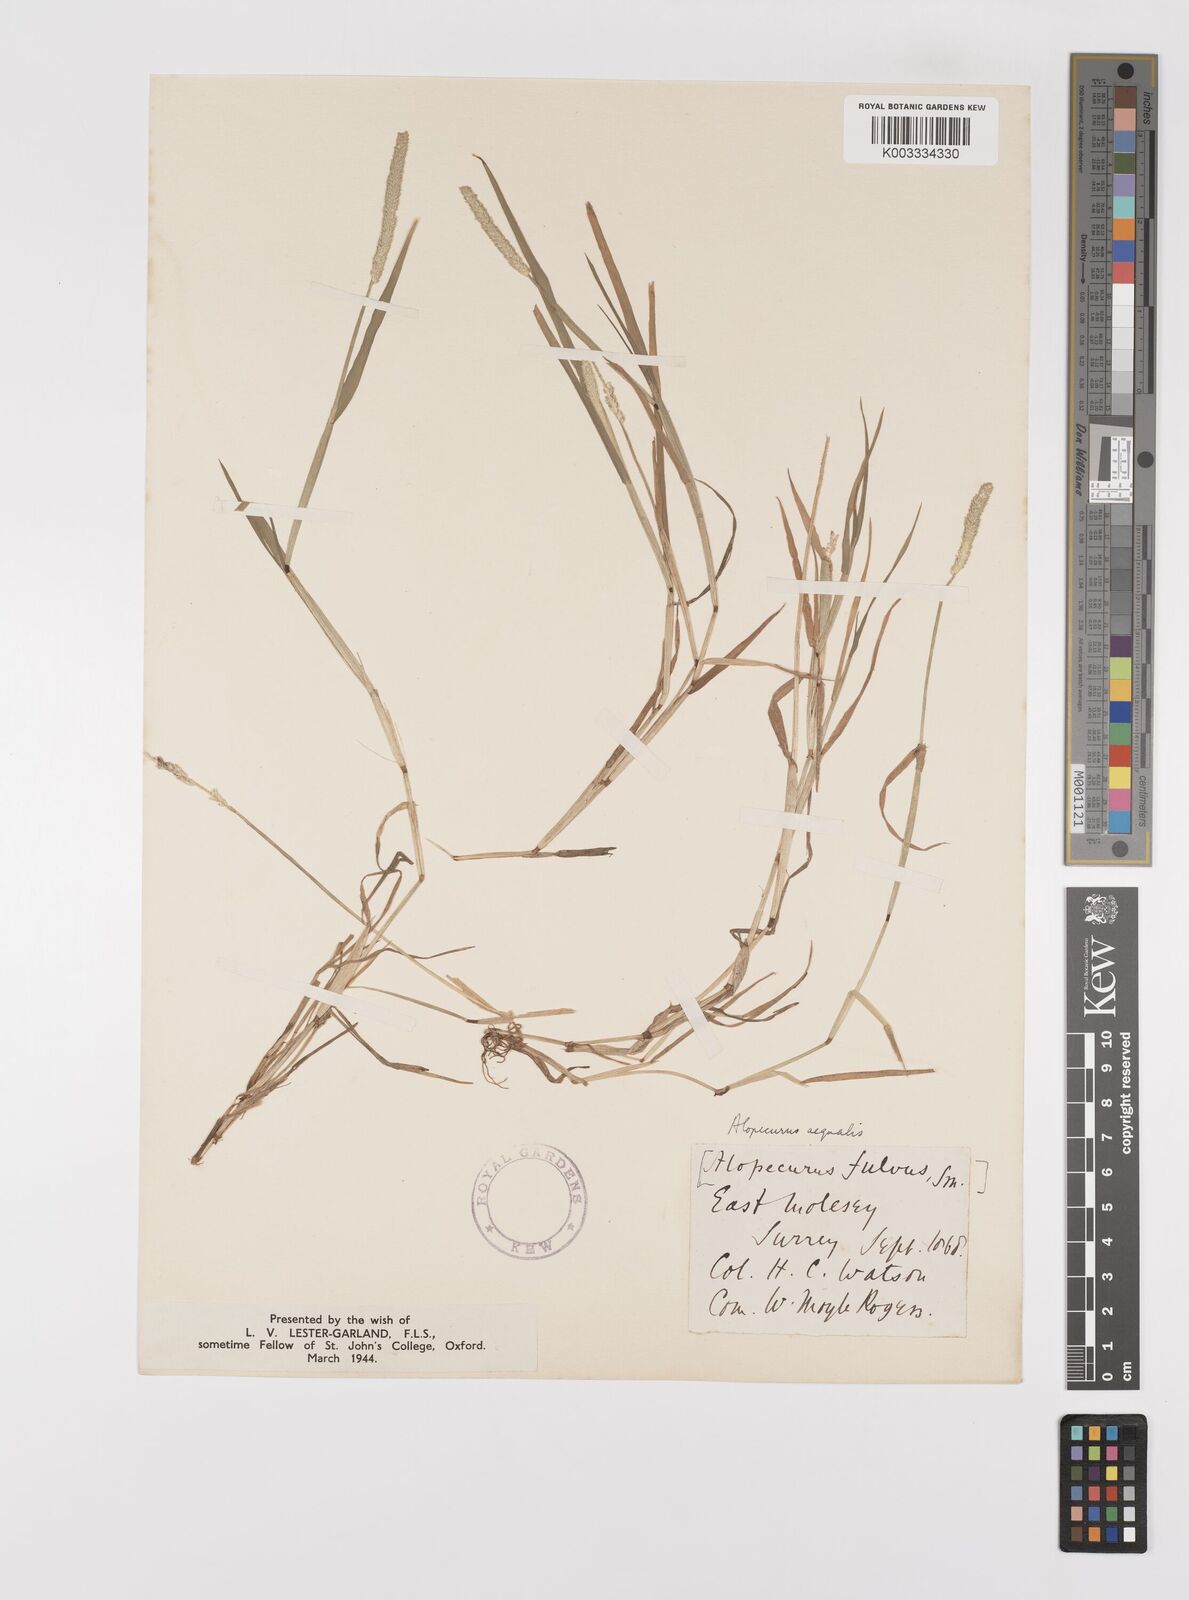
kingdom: Plantae
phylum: Tracheophyta
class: Liliopsida
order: Poales
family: Poaceae
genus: Alopecurus
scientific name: Alopecurus aequalis
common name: Orange foxtail
